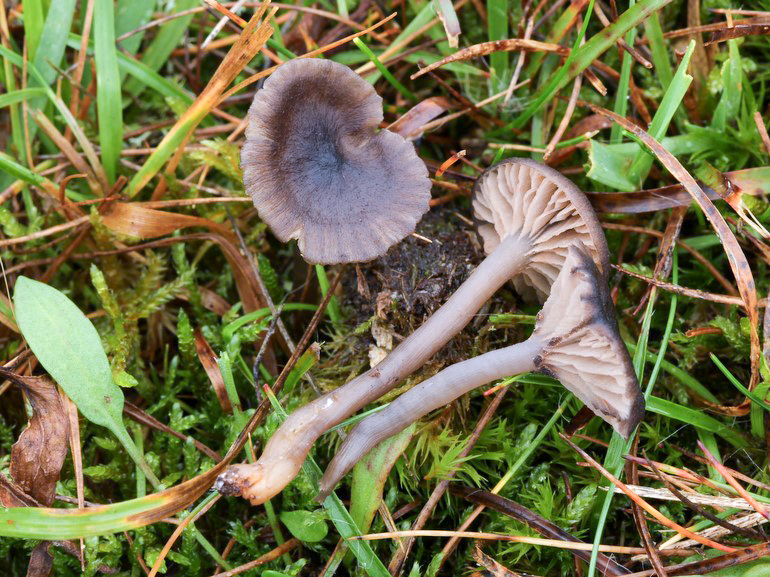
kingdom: Fungi
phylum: Basidiomycota
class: Agaricomycetes
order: Agaricales
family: Entolomataceae
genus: Entoloma
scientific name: Entoloma caeruleopolitum
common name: blåpoleret rødblad
